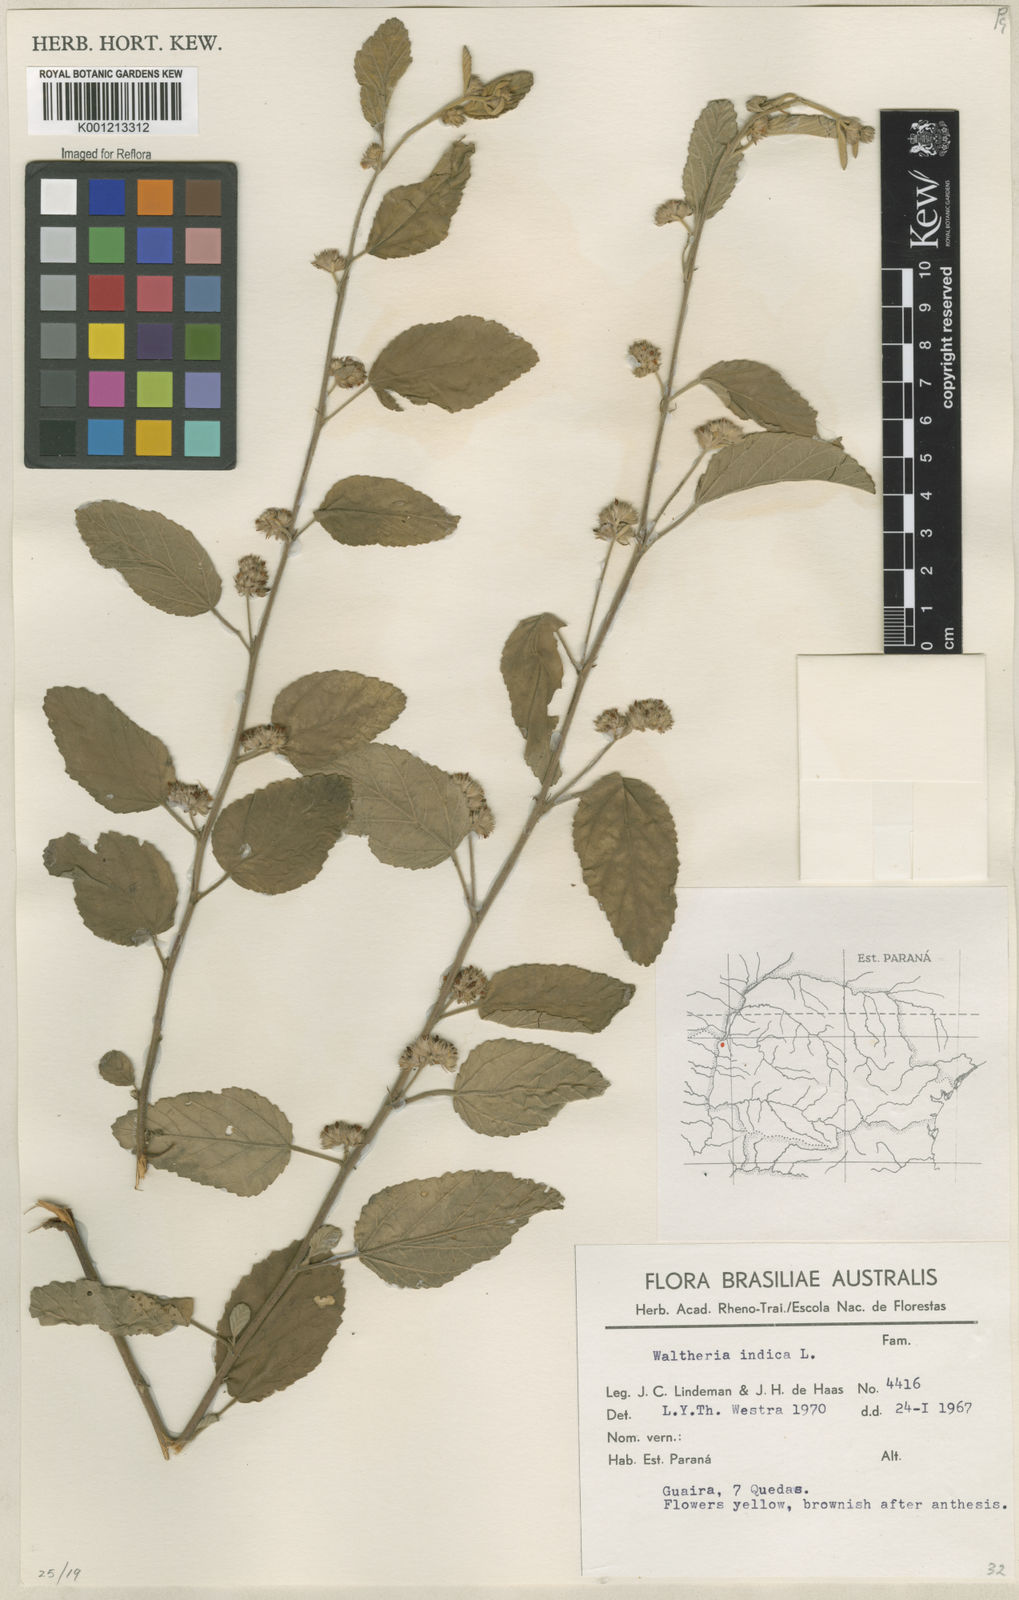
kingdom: Plantae
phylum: Tracheophyta
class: Magnoliopsida
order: Malvales
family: Malvaceae
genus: Waltheria
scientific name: Waltheria indica
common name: Leather-coat
